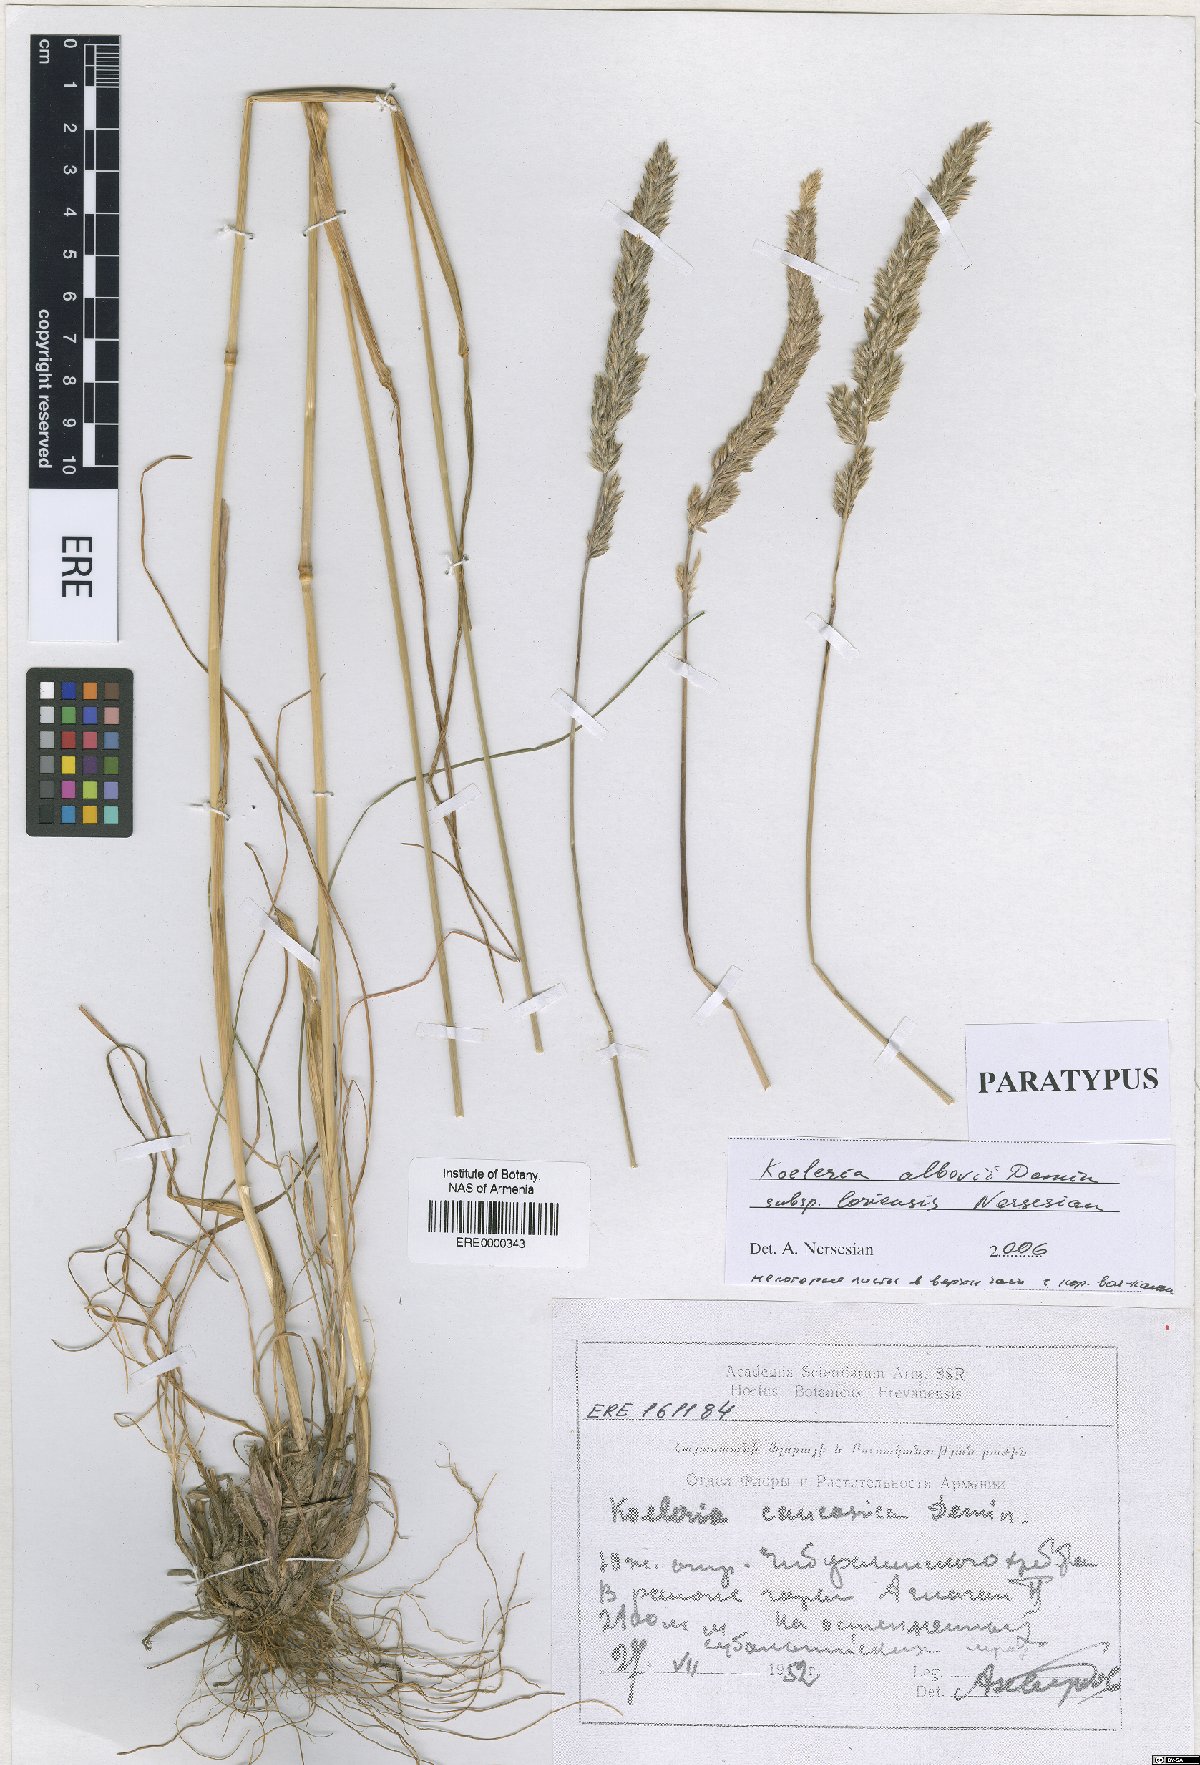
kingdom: Plantae
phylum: Tracheophyta
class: Liliopsida
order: Poales
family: Poaceae
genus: Koeleria
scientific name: Koeleria eriostachya
